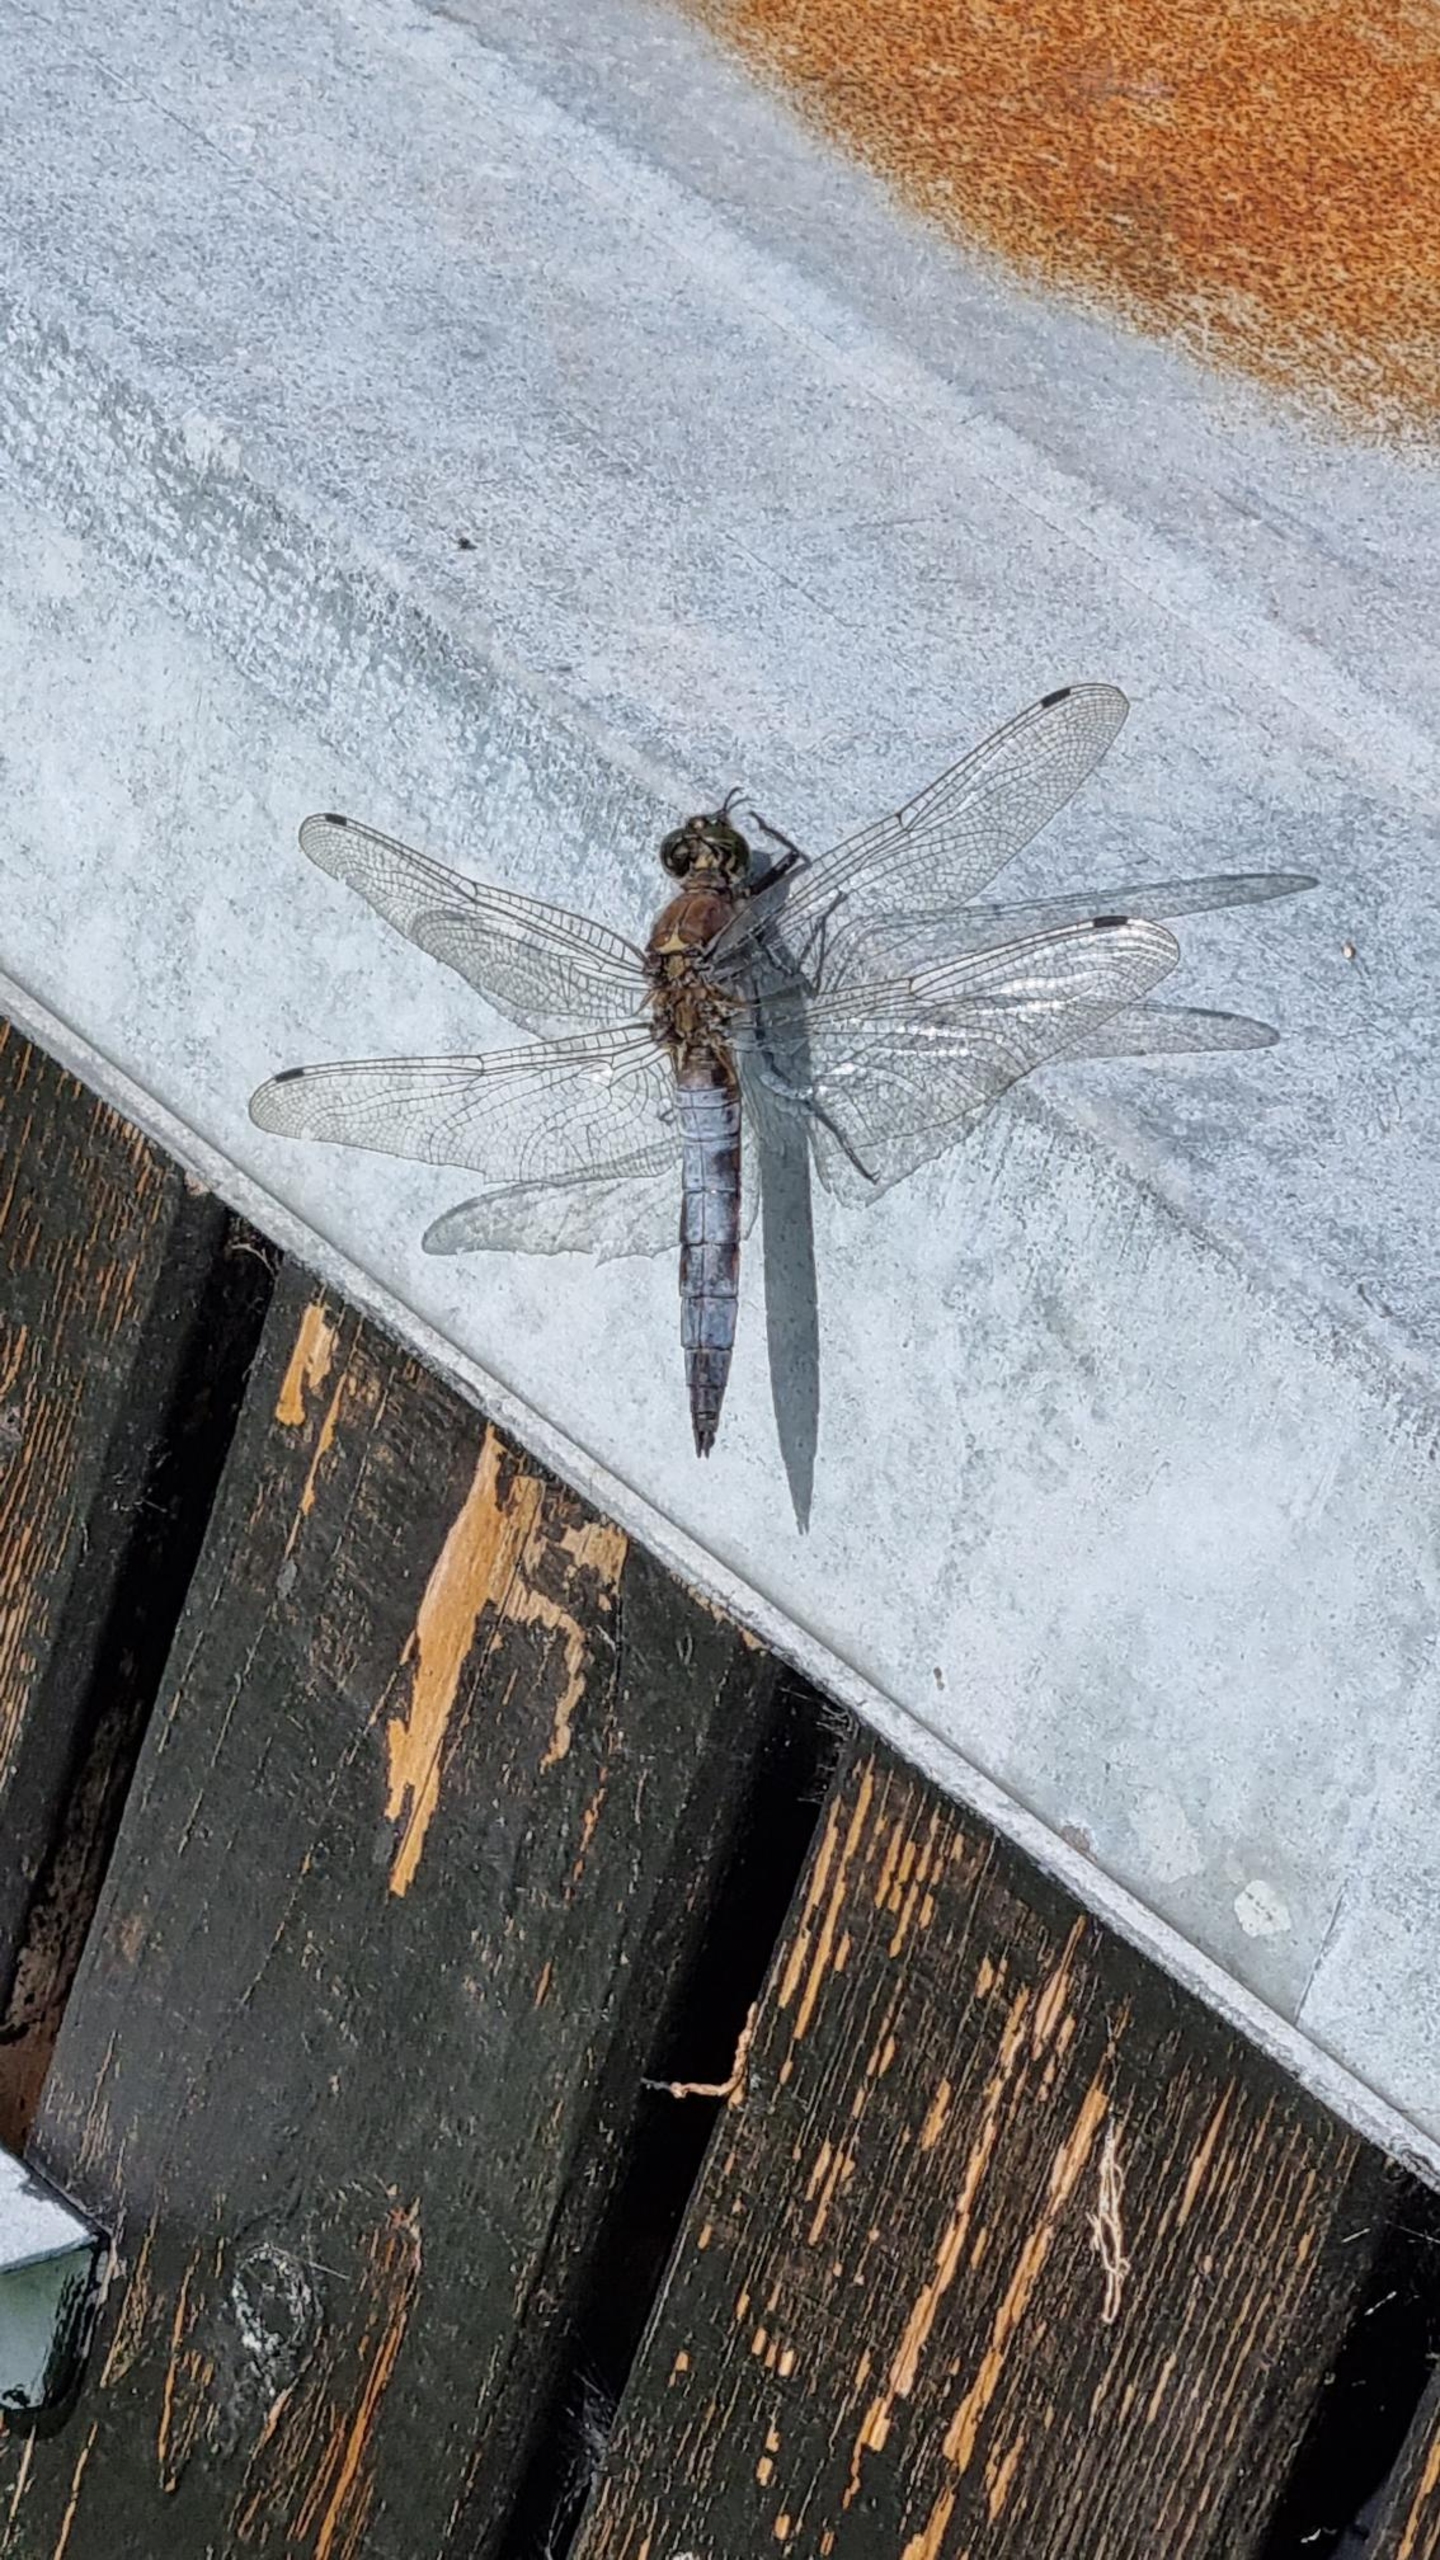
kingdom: Animalia
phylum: Arthropoda
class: Insecta
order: Odonata
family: Libellulidae
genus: Orthetrum
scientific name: Orthetrum cancellatum
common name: Stor blåpil
